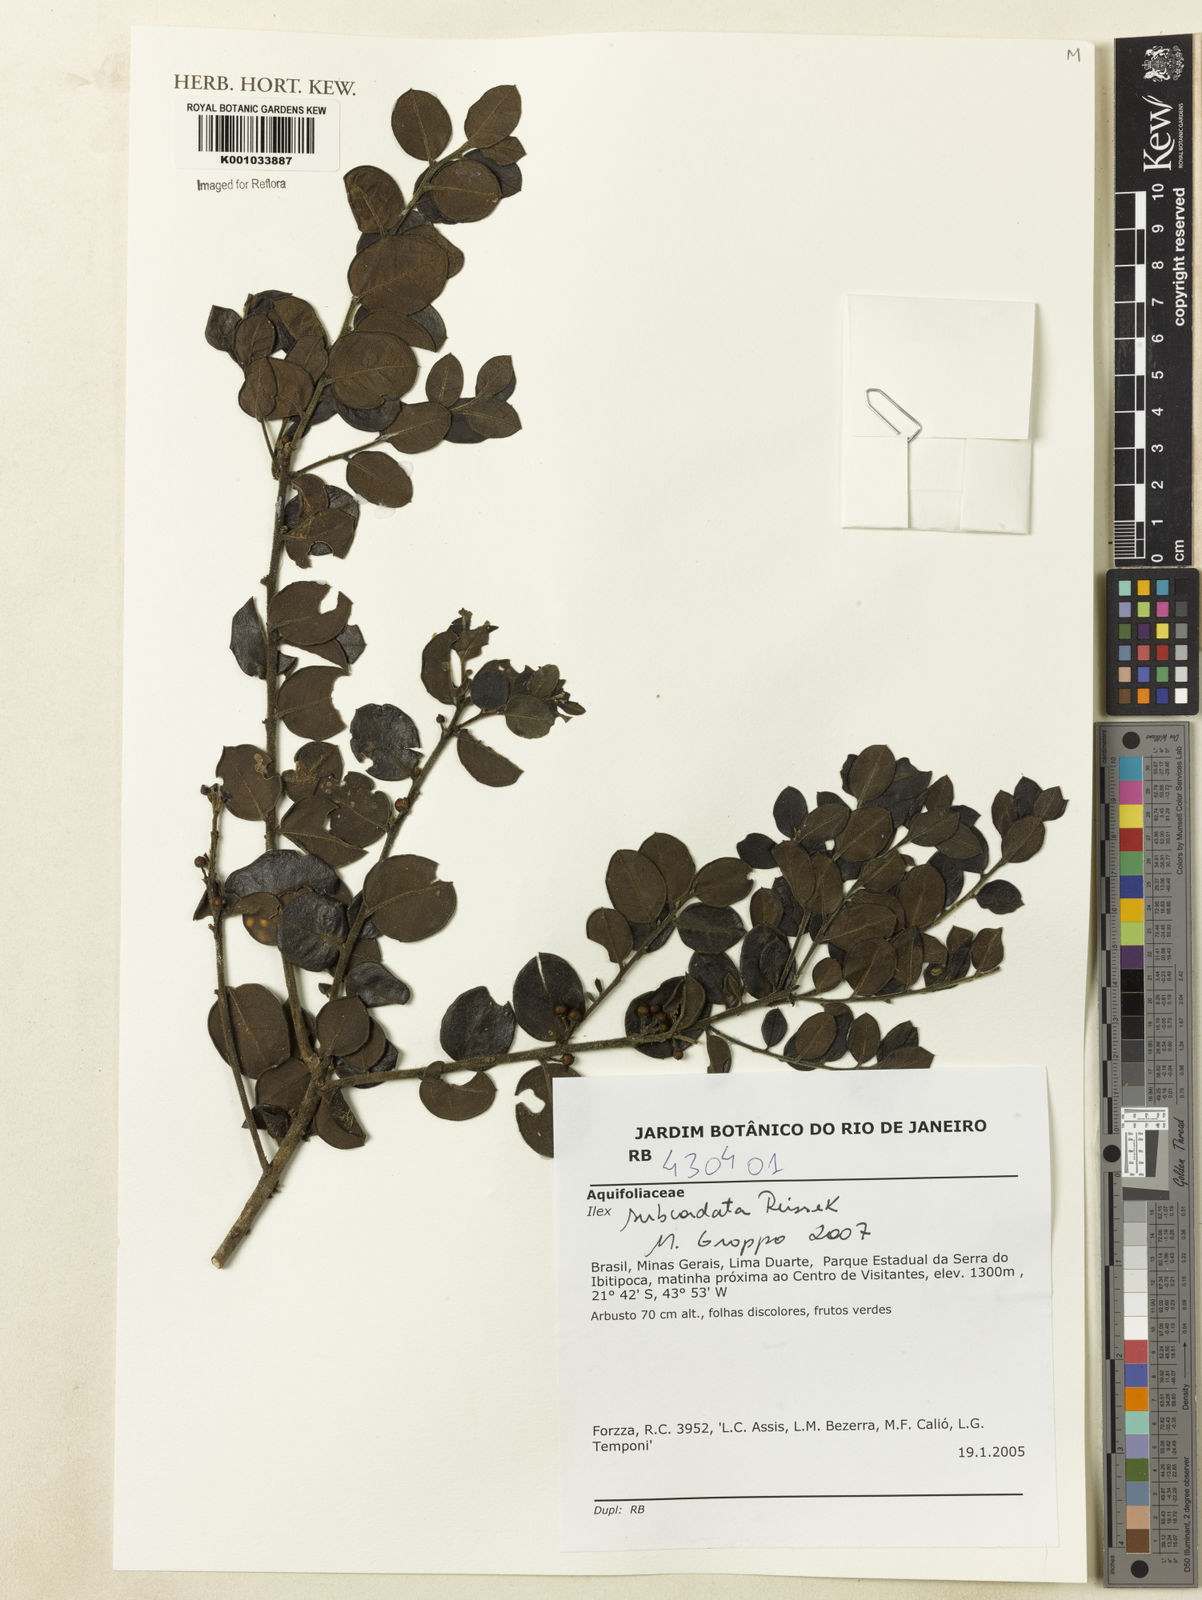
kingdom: Plantae
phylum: Tracheophyta
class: Magnoliopsida
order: Aquifoliales
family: Aquifoliaceae
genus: Ilex
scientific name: Ilex subcordata
